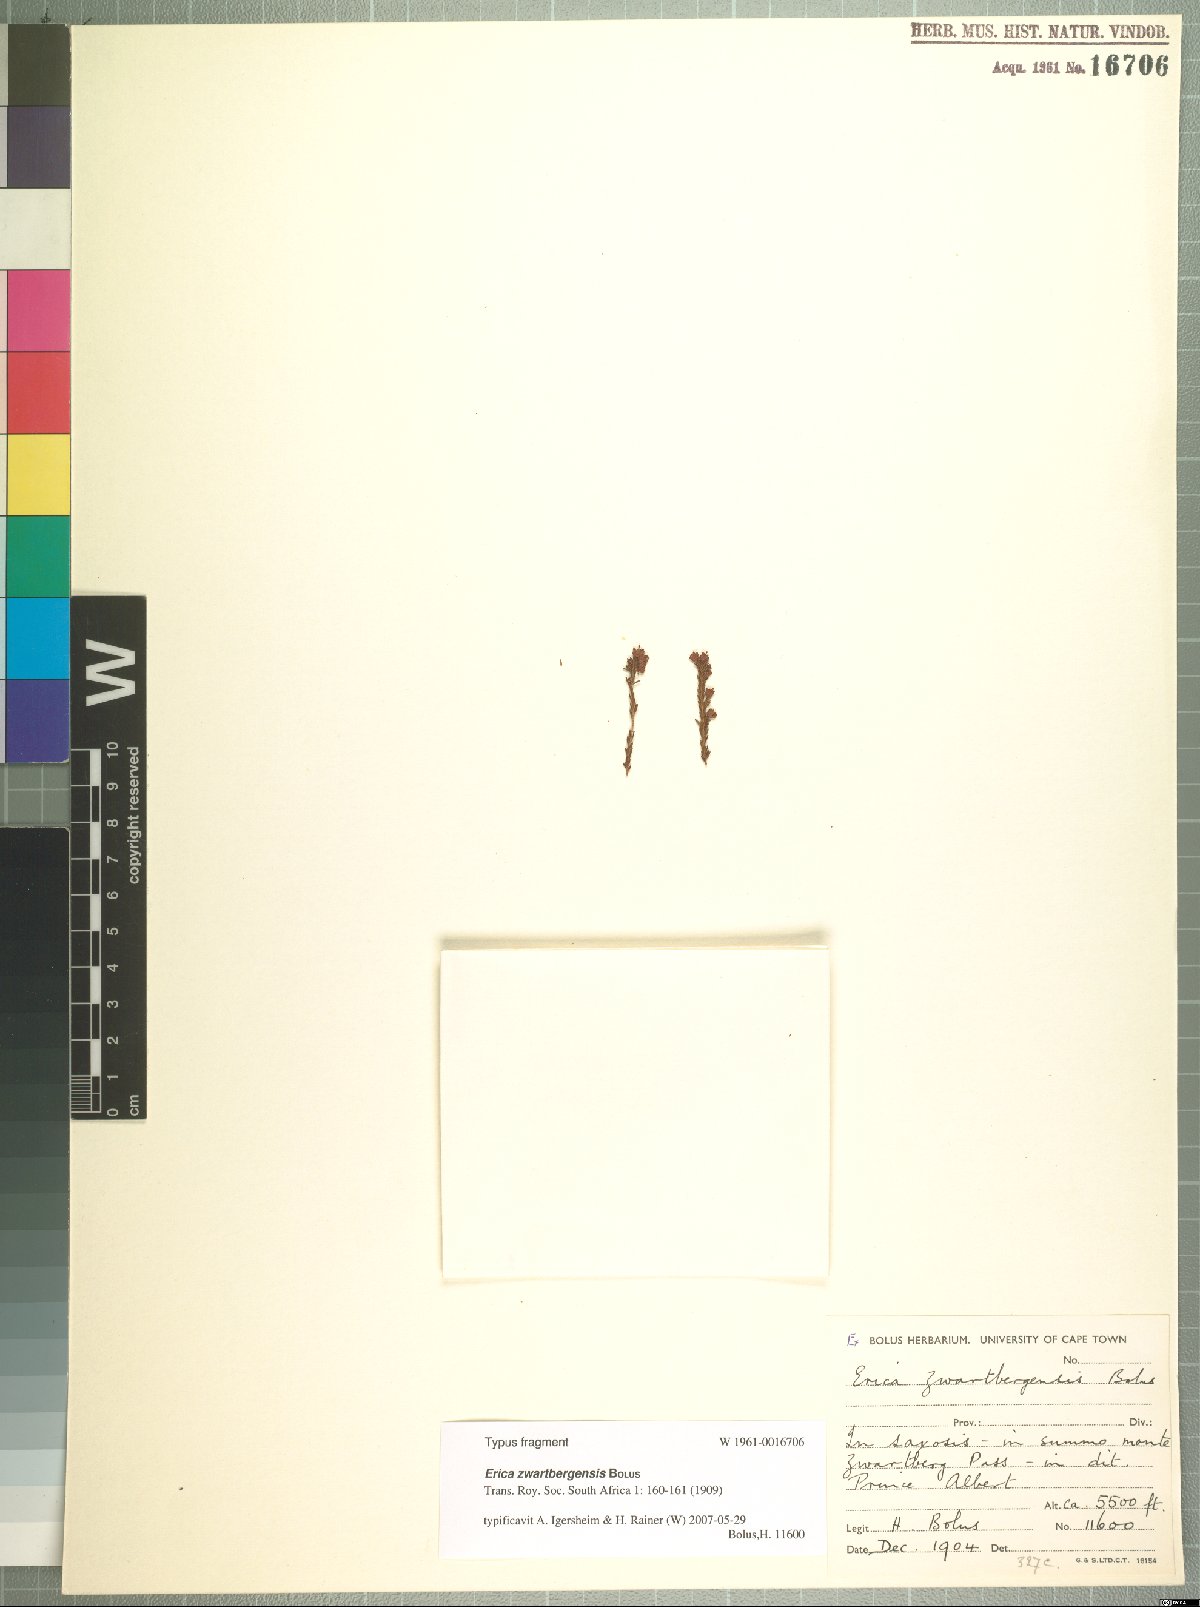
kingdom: Plantae
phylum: Tracheophyta
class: Magnoliopsida
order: Ericales
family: Ericaceae
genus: Erica
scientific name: Erica zwartbergensis
